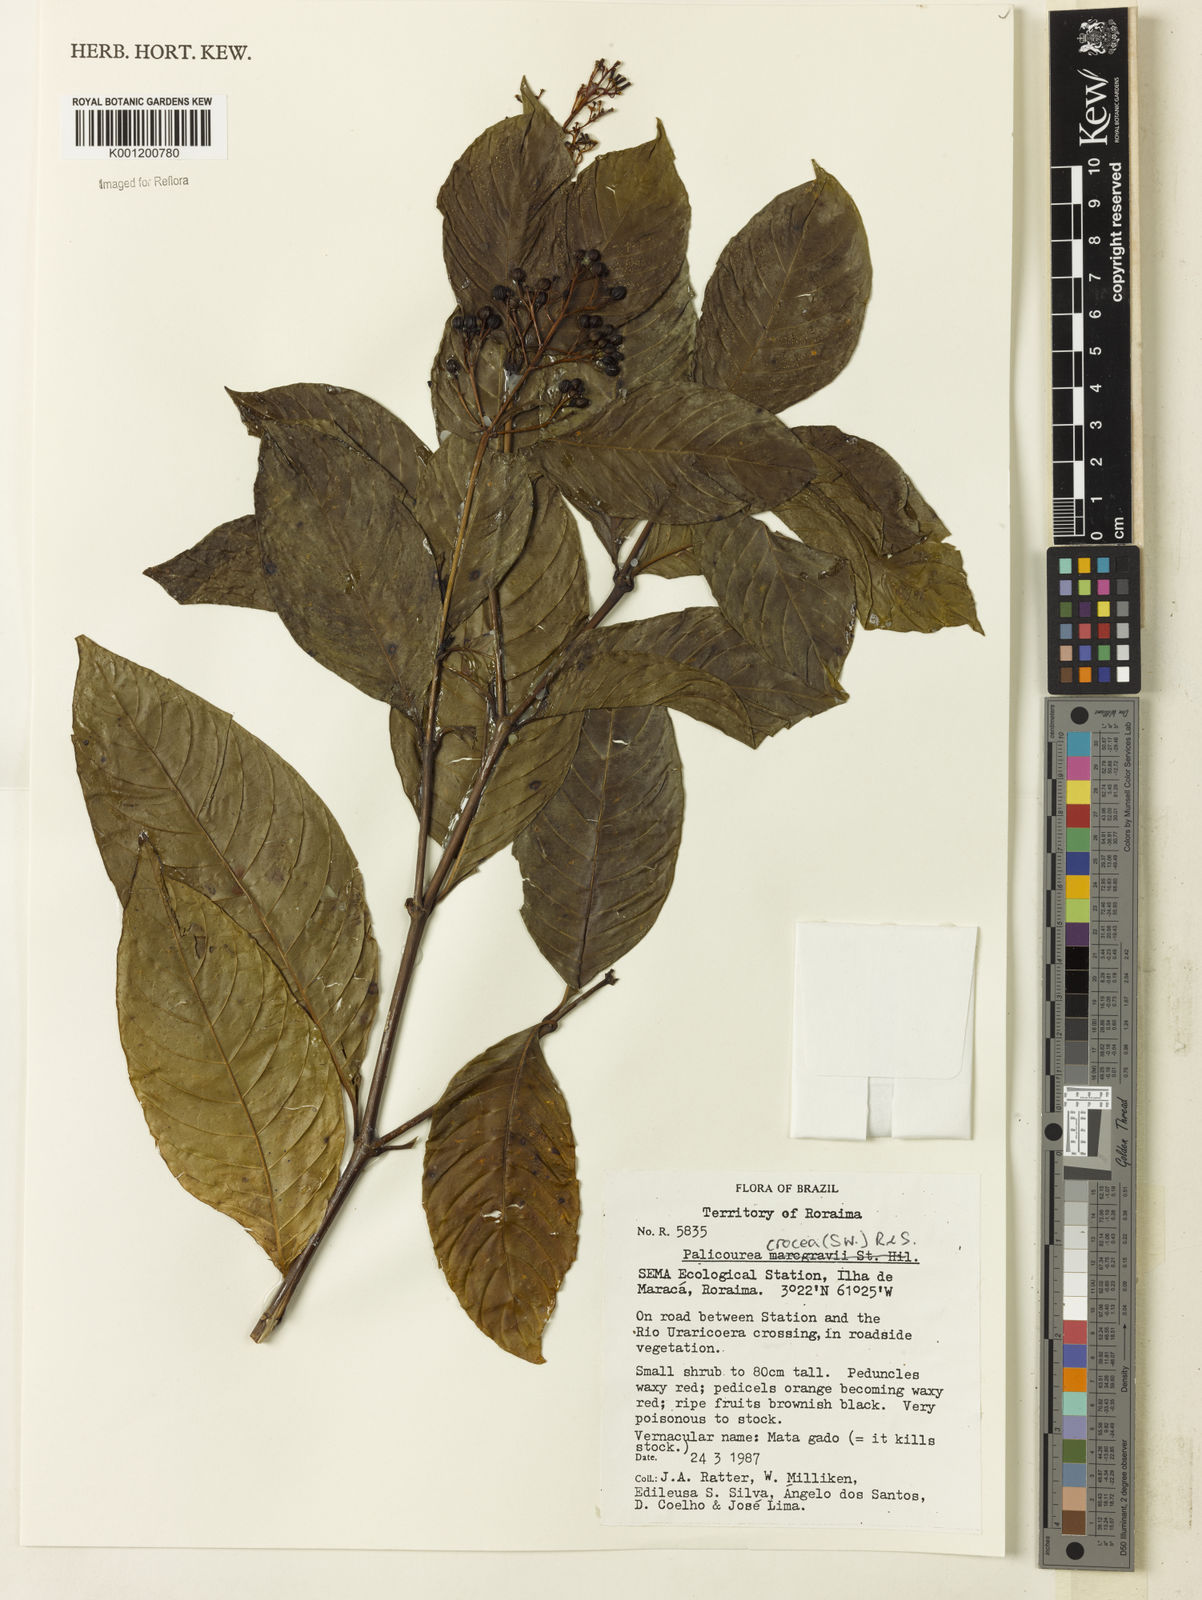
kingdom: Plantae
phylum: Tracheophyta
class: Magnoliopsida
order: Gentianales
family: Rubiaceae
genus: Palicourea
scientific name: Palicourea crocea
